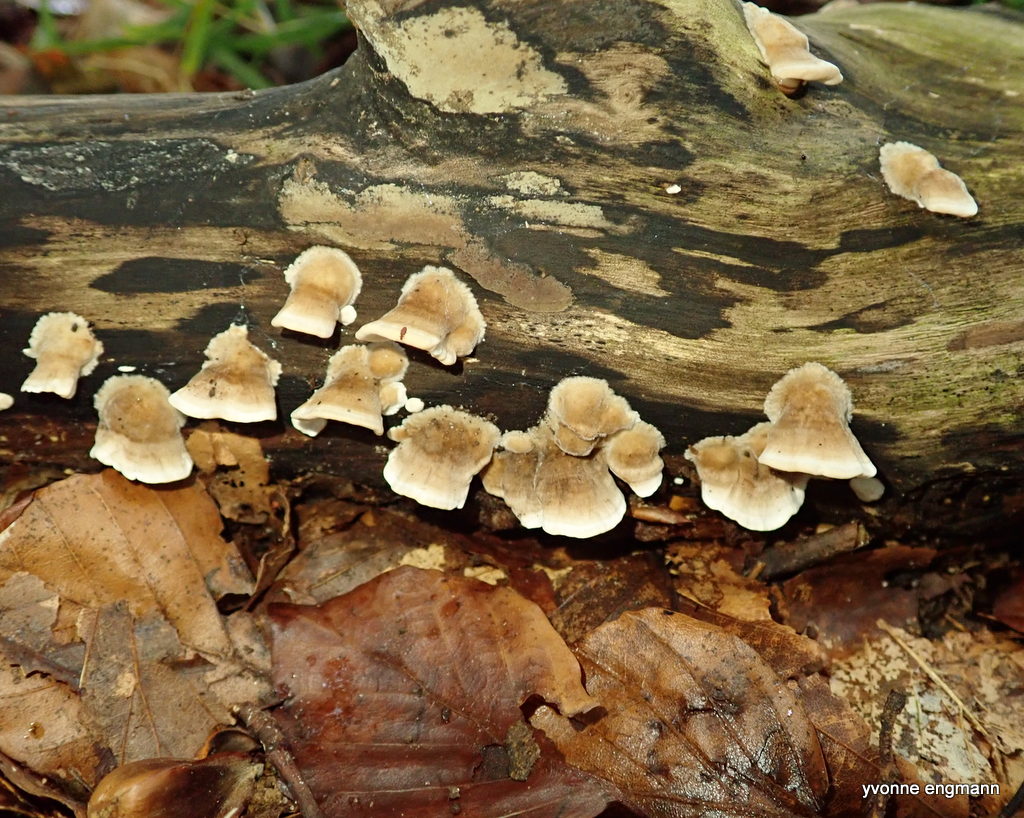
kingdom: Fungi
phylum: Basidiomycota
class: Agaricomycetes
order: Polyporales
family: Polyporaceae
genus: Trametes
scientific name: Trametes
